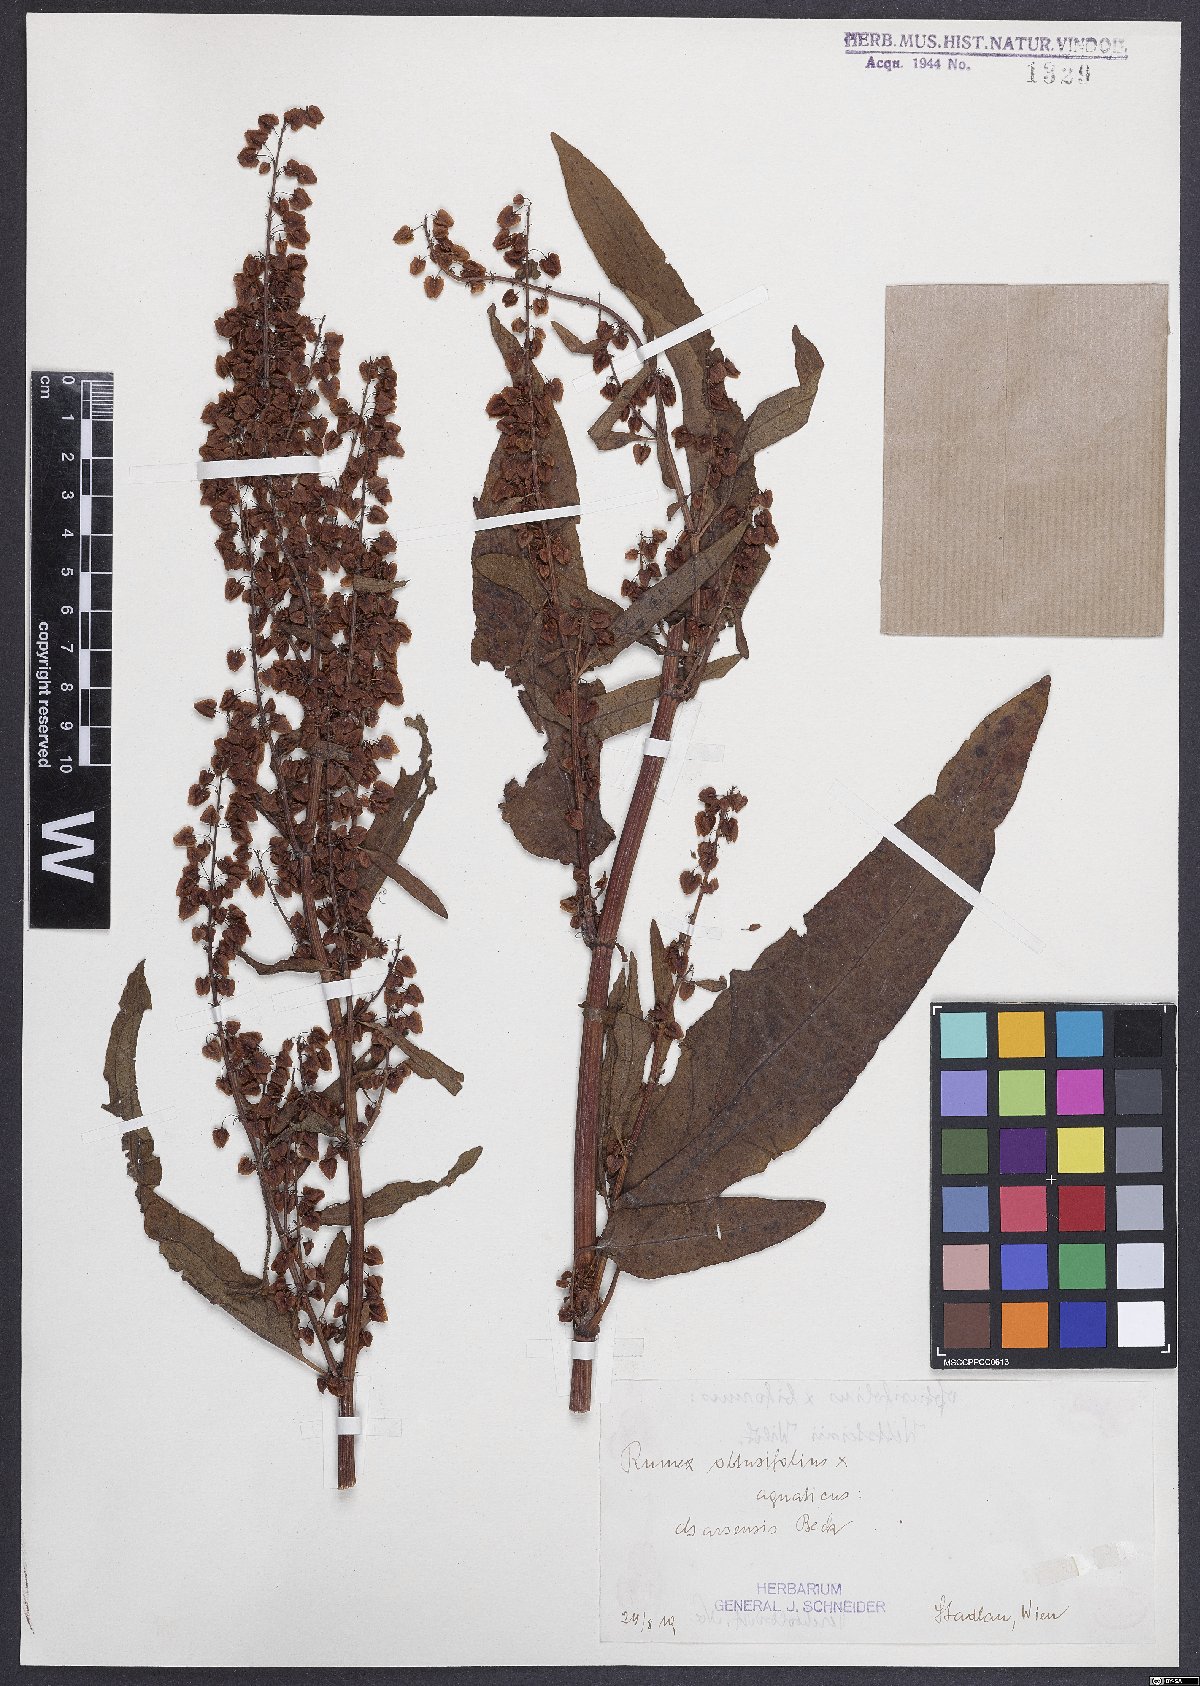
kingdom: Plantae
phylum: Tracheophyta
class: Magnoliopsida
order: Caryophyllales
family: Polygonaceae
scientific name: Polygonaceae
